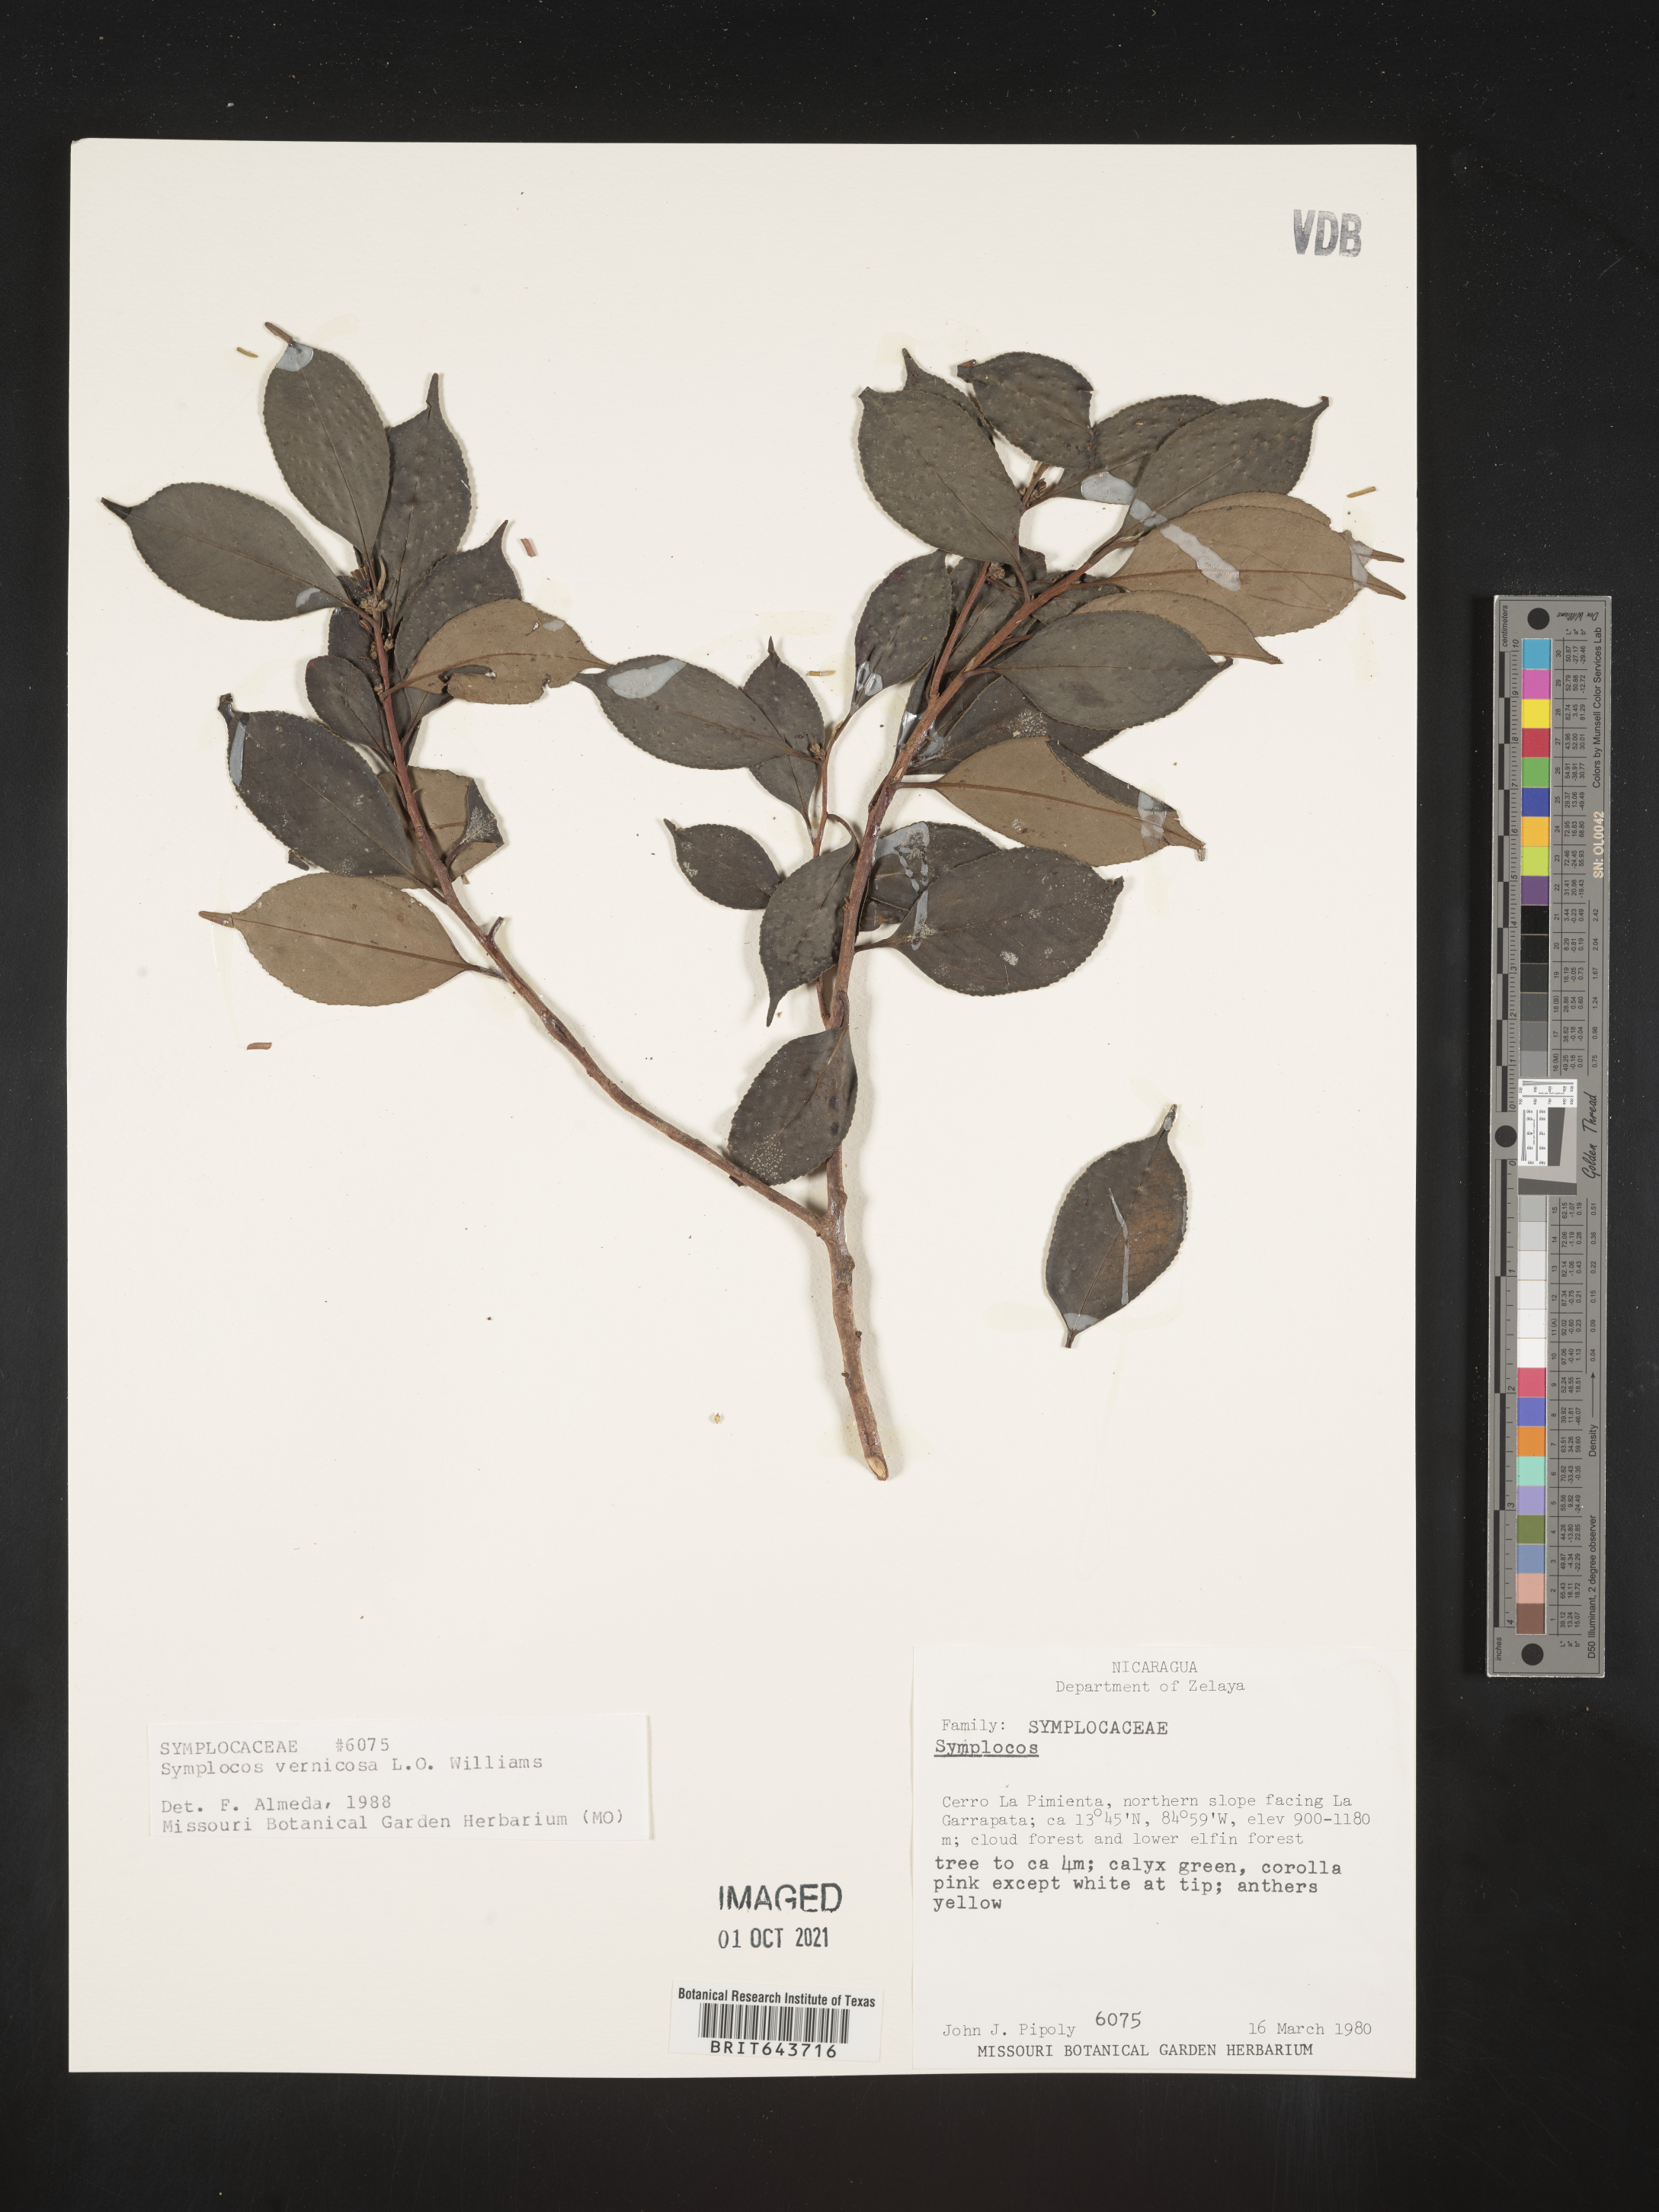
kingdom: Plantae
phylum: Tracheophyta
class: Magnoliopsida
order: Ericales
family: Symplocaceae
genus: Symplocos
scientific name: Symplocos
